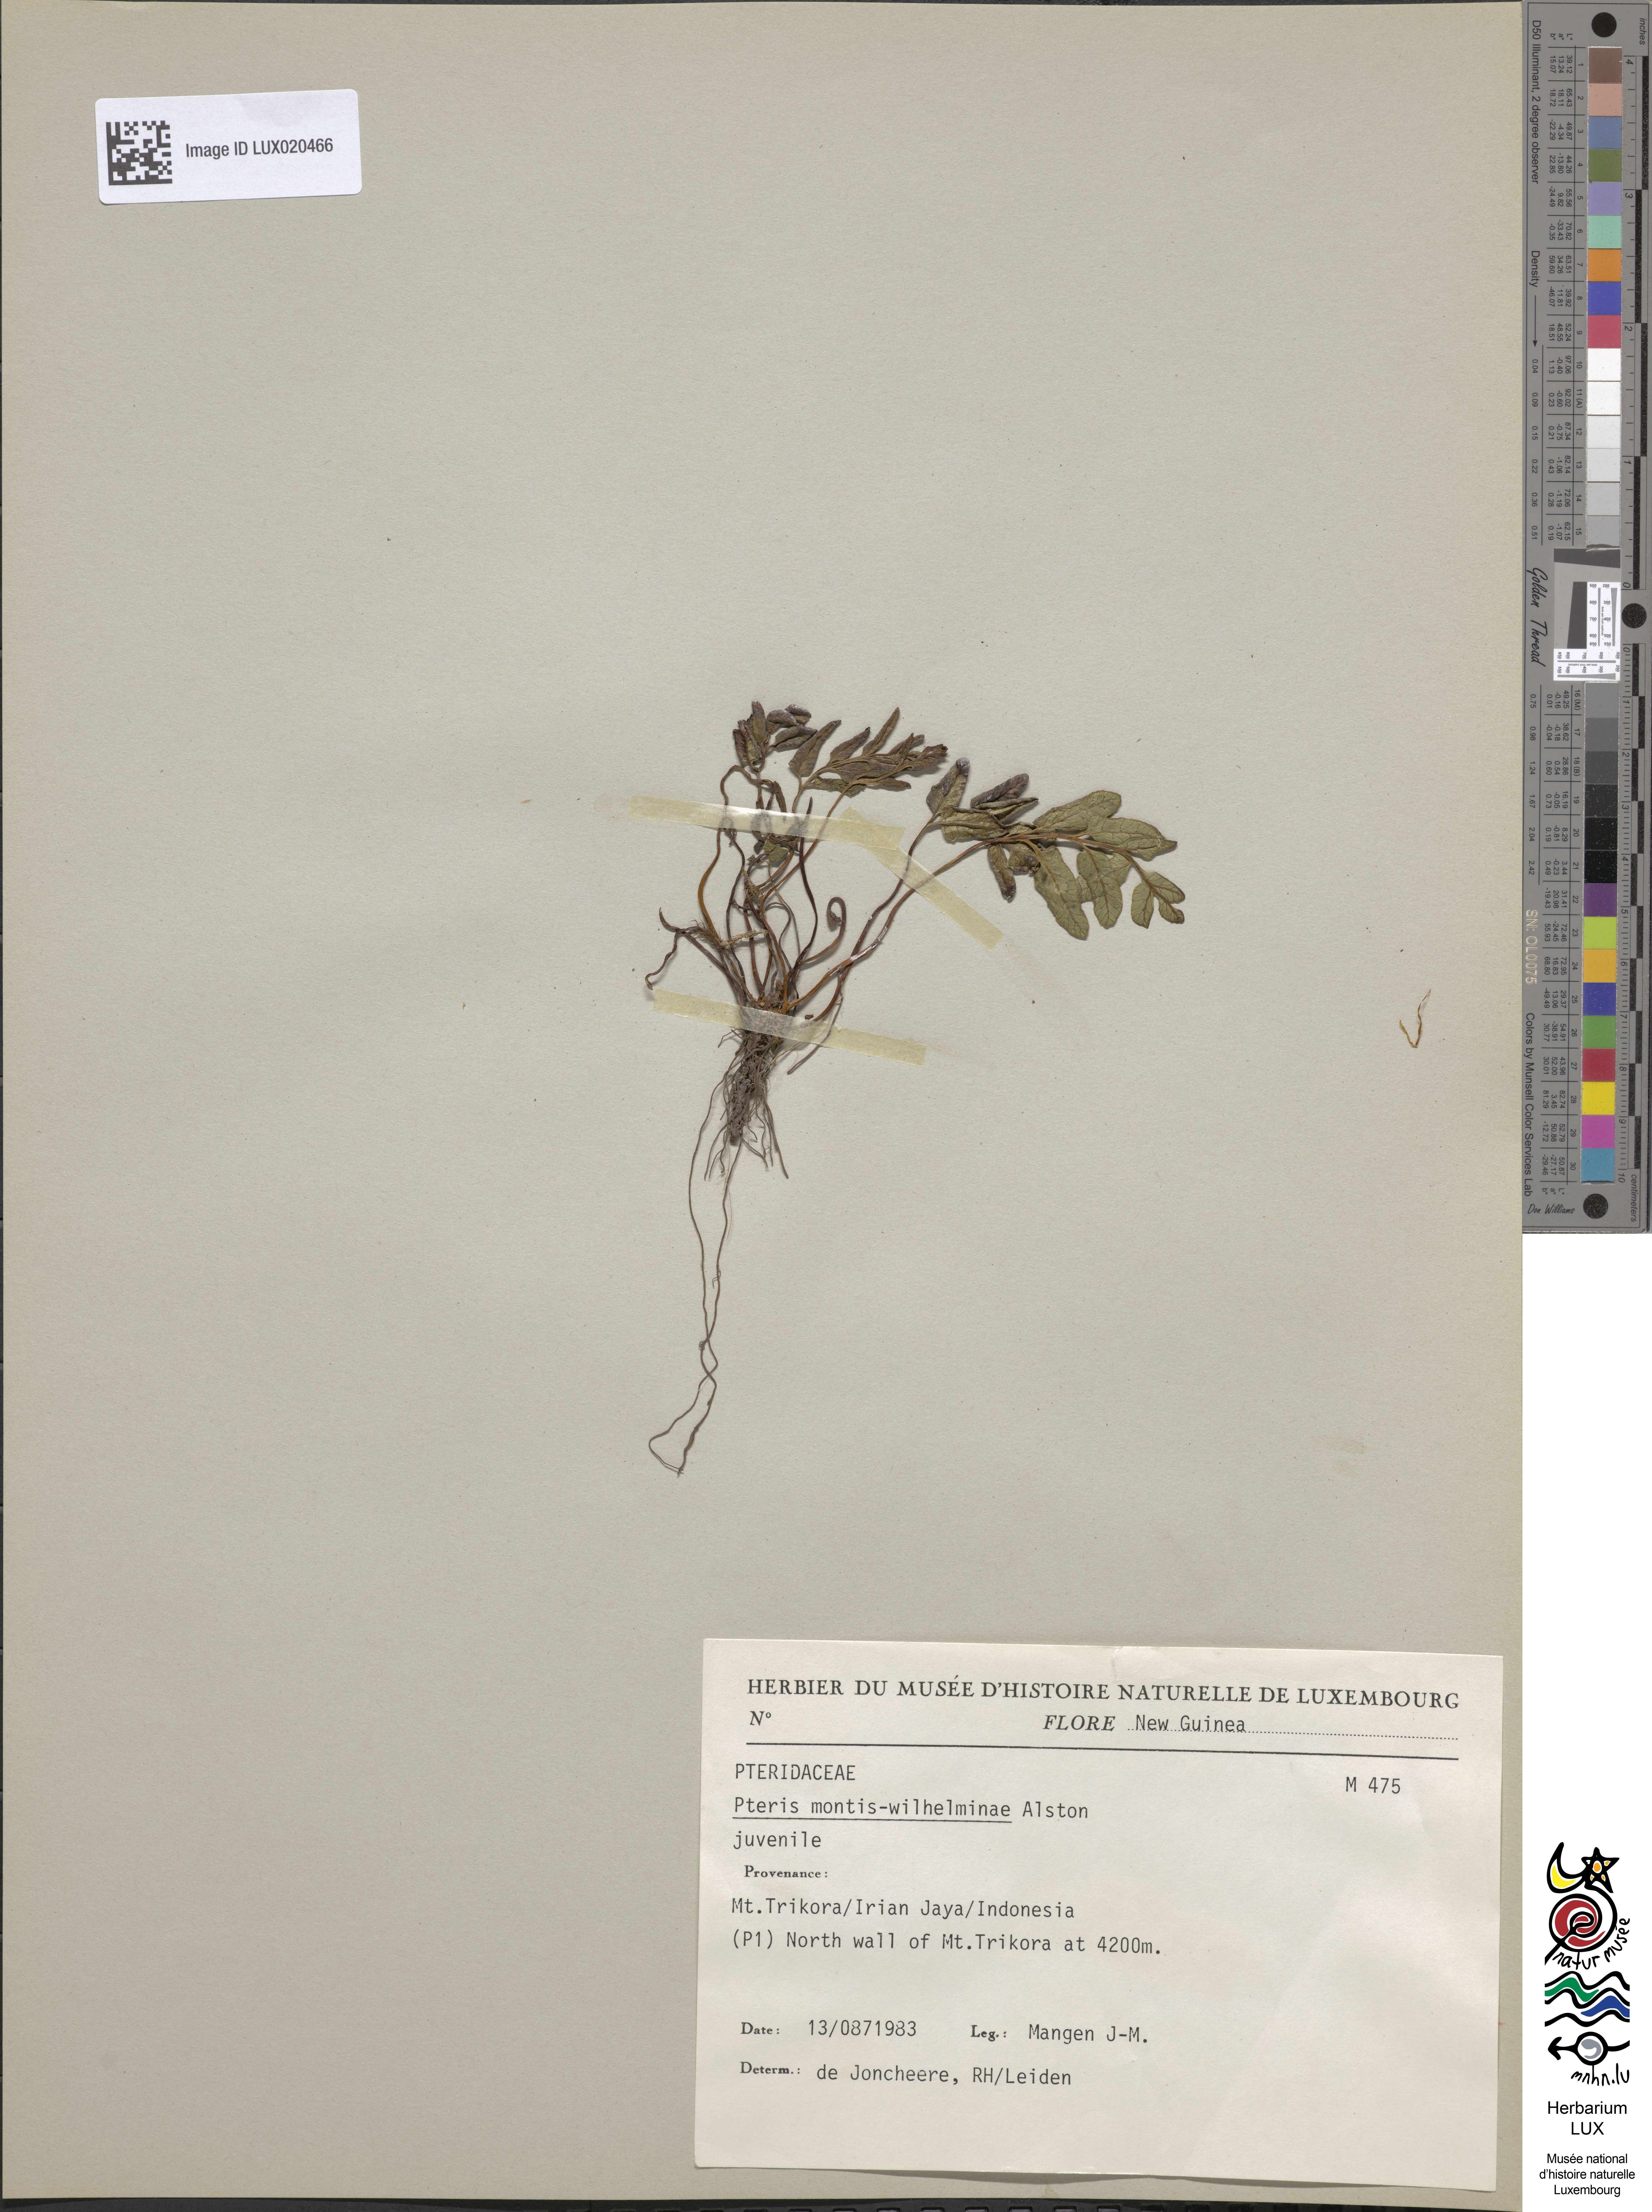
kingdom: Plantae
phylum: Tracheophyta
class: Polypodiopsida
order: Polypodiales
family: Pteridaceae
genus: Pteris
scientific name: Pteris montis-wilhelminae
